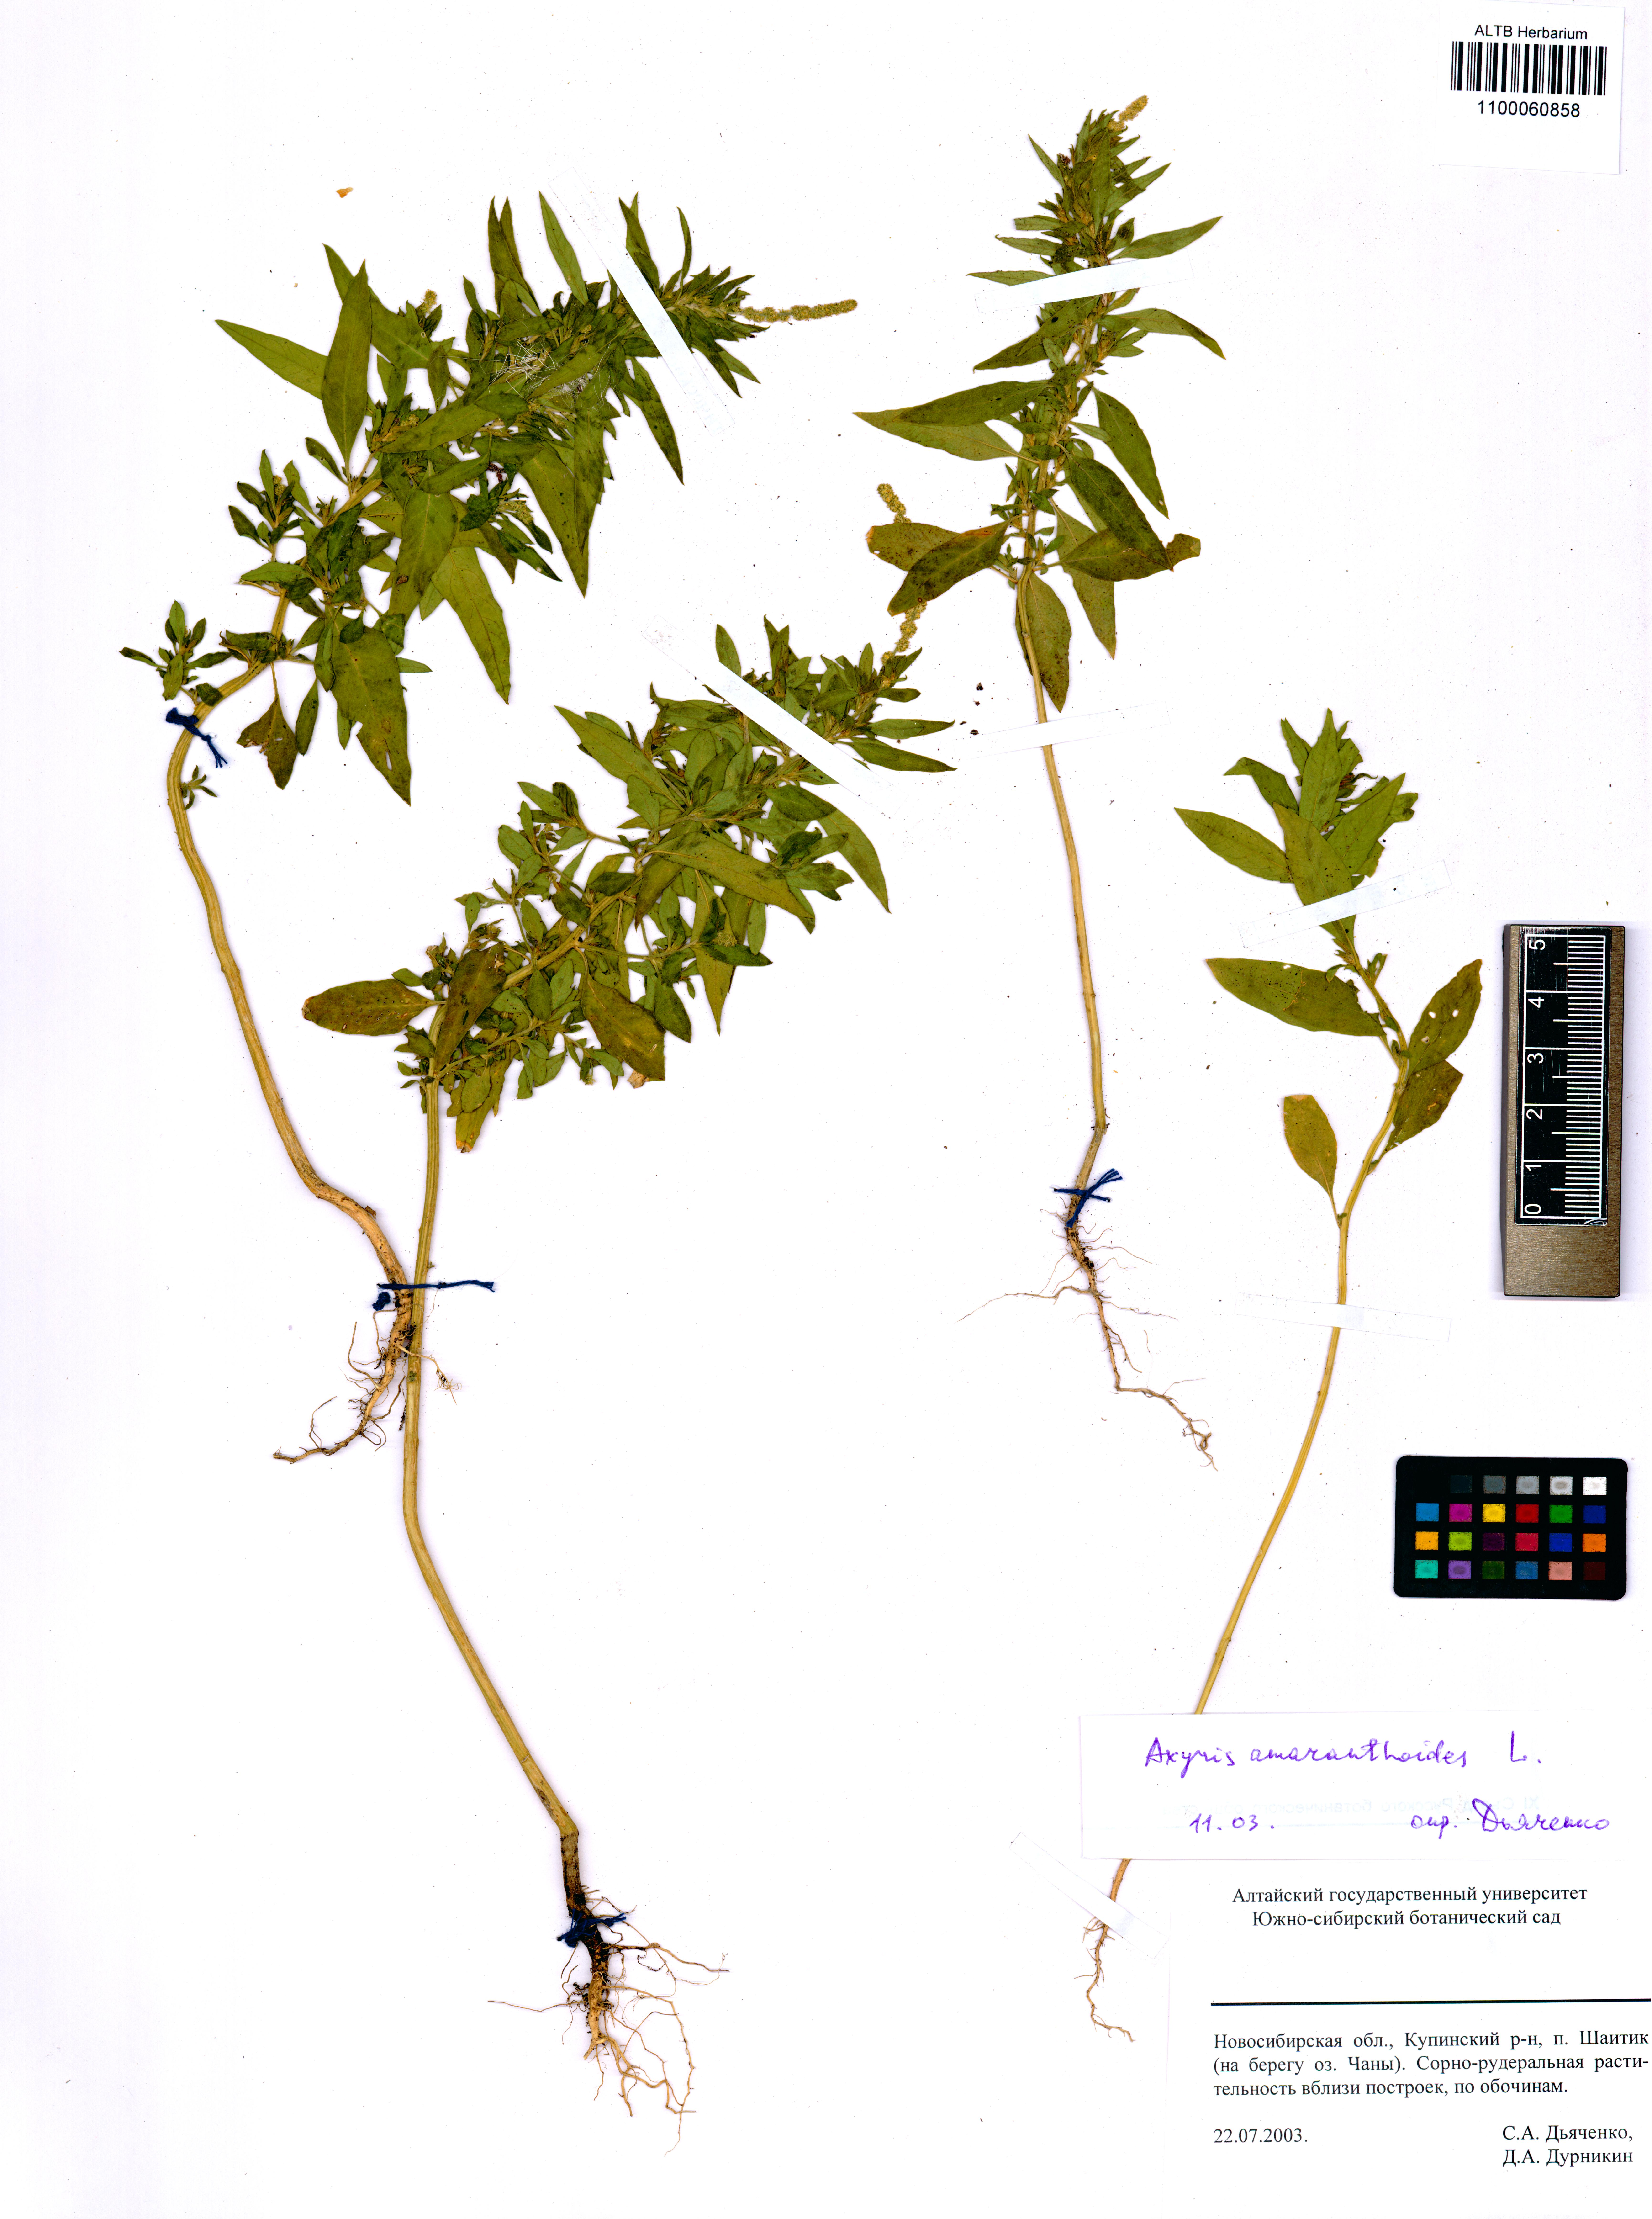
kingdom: Plantae
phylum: Tracheophyta
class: Magnoliopsida
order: Caryophyllales
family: Amaranthaceae
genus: Axyris
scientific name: Axyris amaranthoides
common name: Russian pigweed
